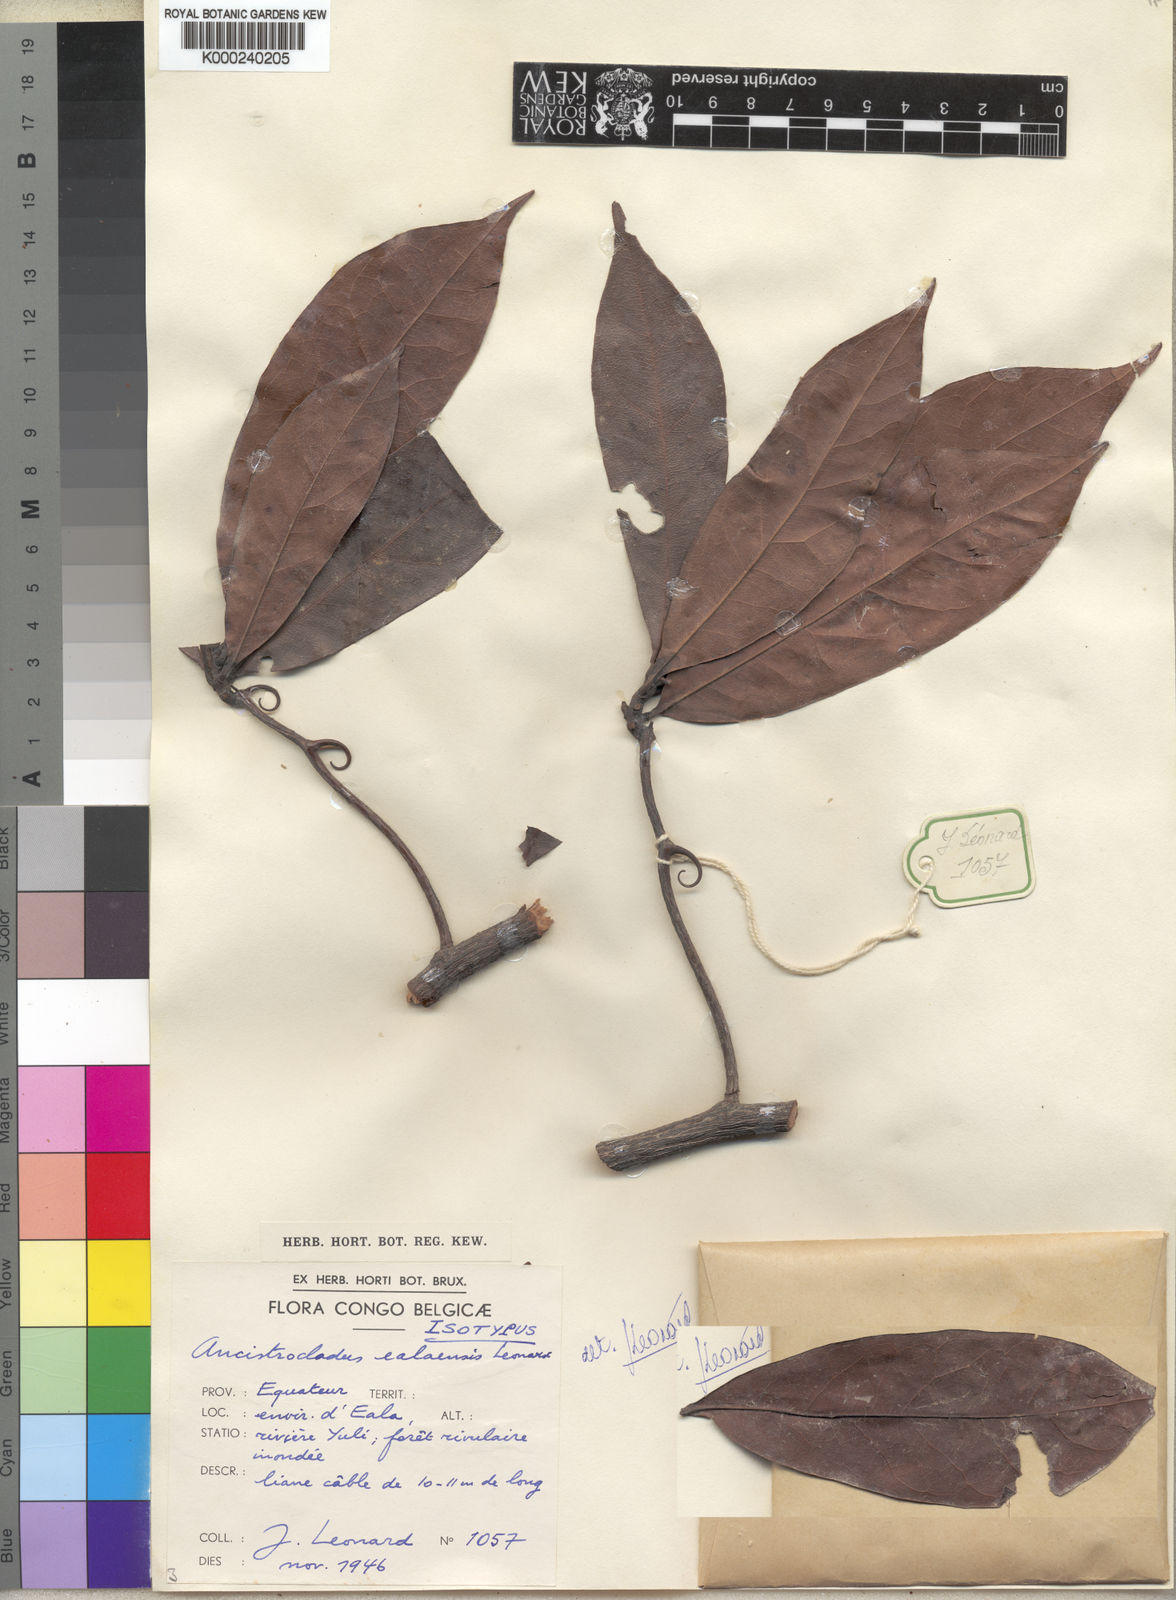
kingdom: Plantae
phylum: Tracheophyta
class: Magnoliopsida
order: Caryophyllales
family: Ancistrocladaceae
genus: Ancistrocladus
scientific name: Ancistrocladus
